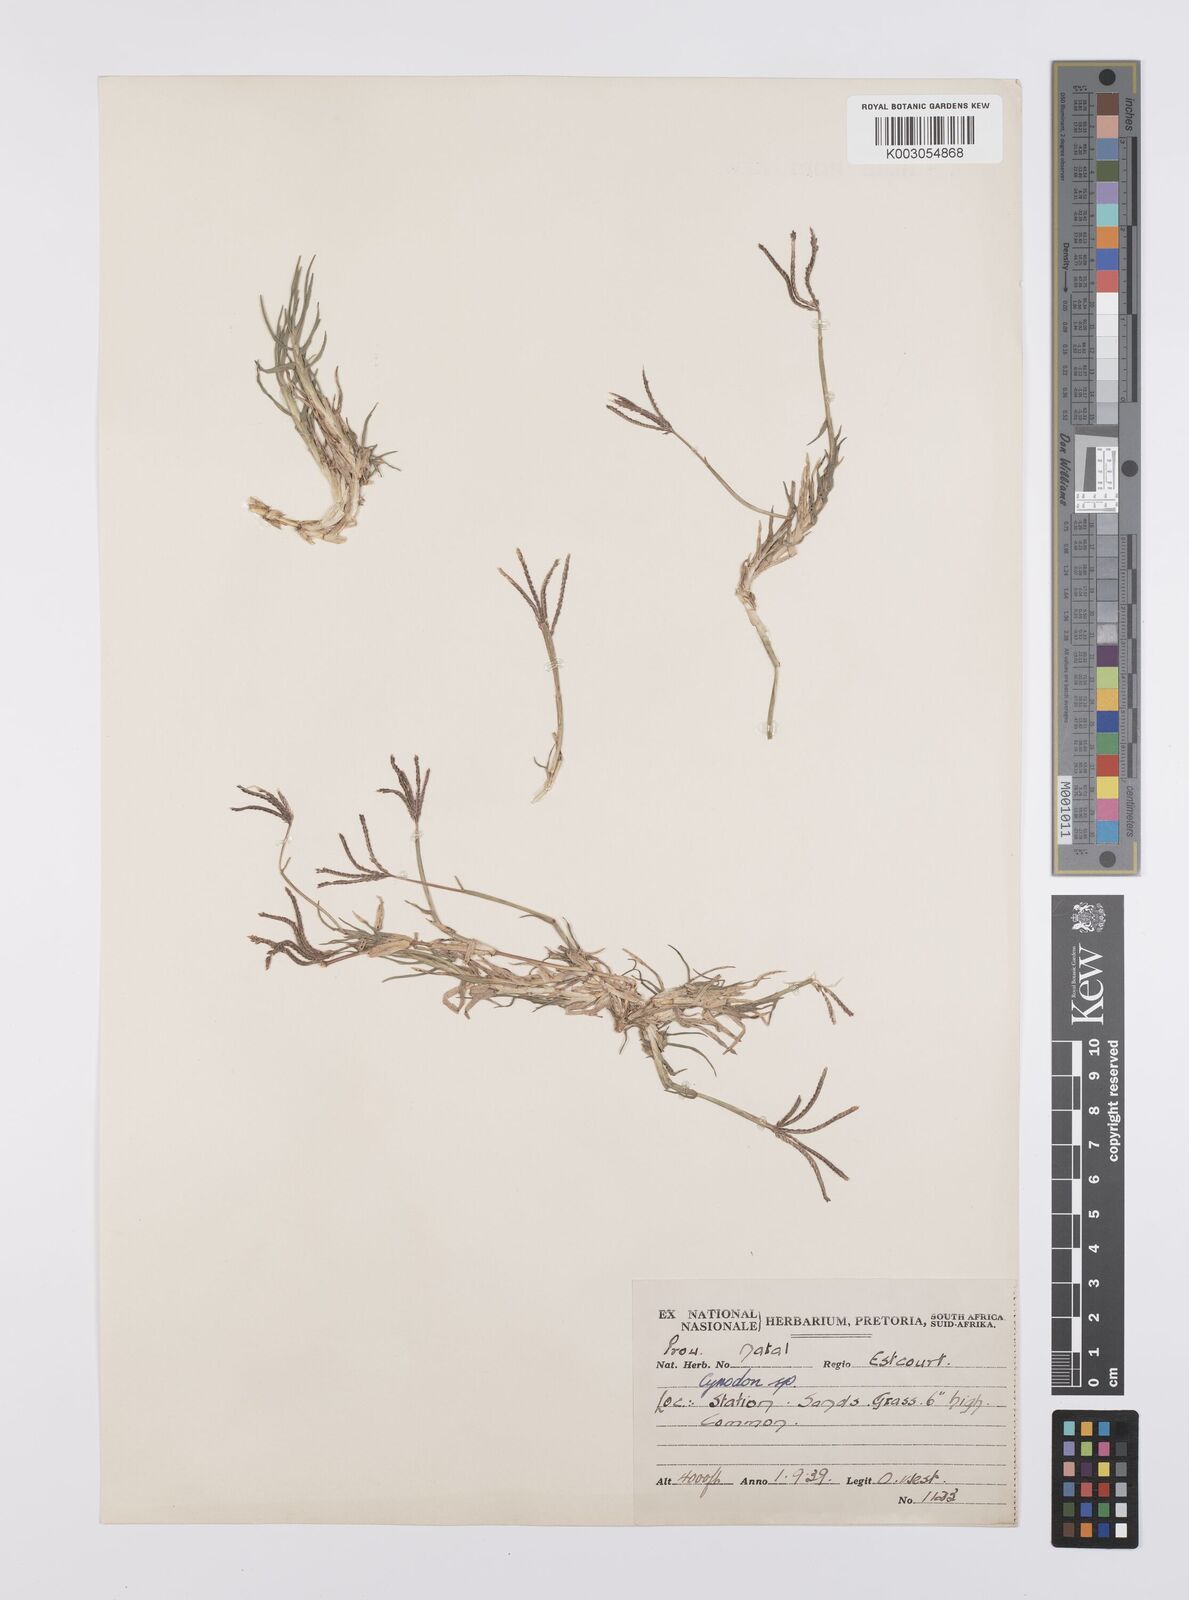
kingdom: Plantae
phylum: Tracheophyta
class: Liliopsida
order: Poales
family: Poaceae
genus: Cynodon
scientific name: Cynodon dactylon
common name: Bermuda grass
